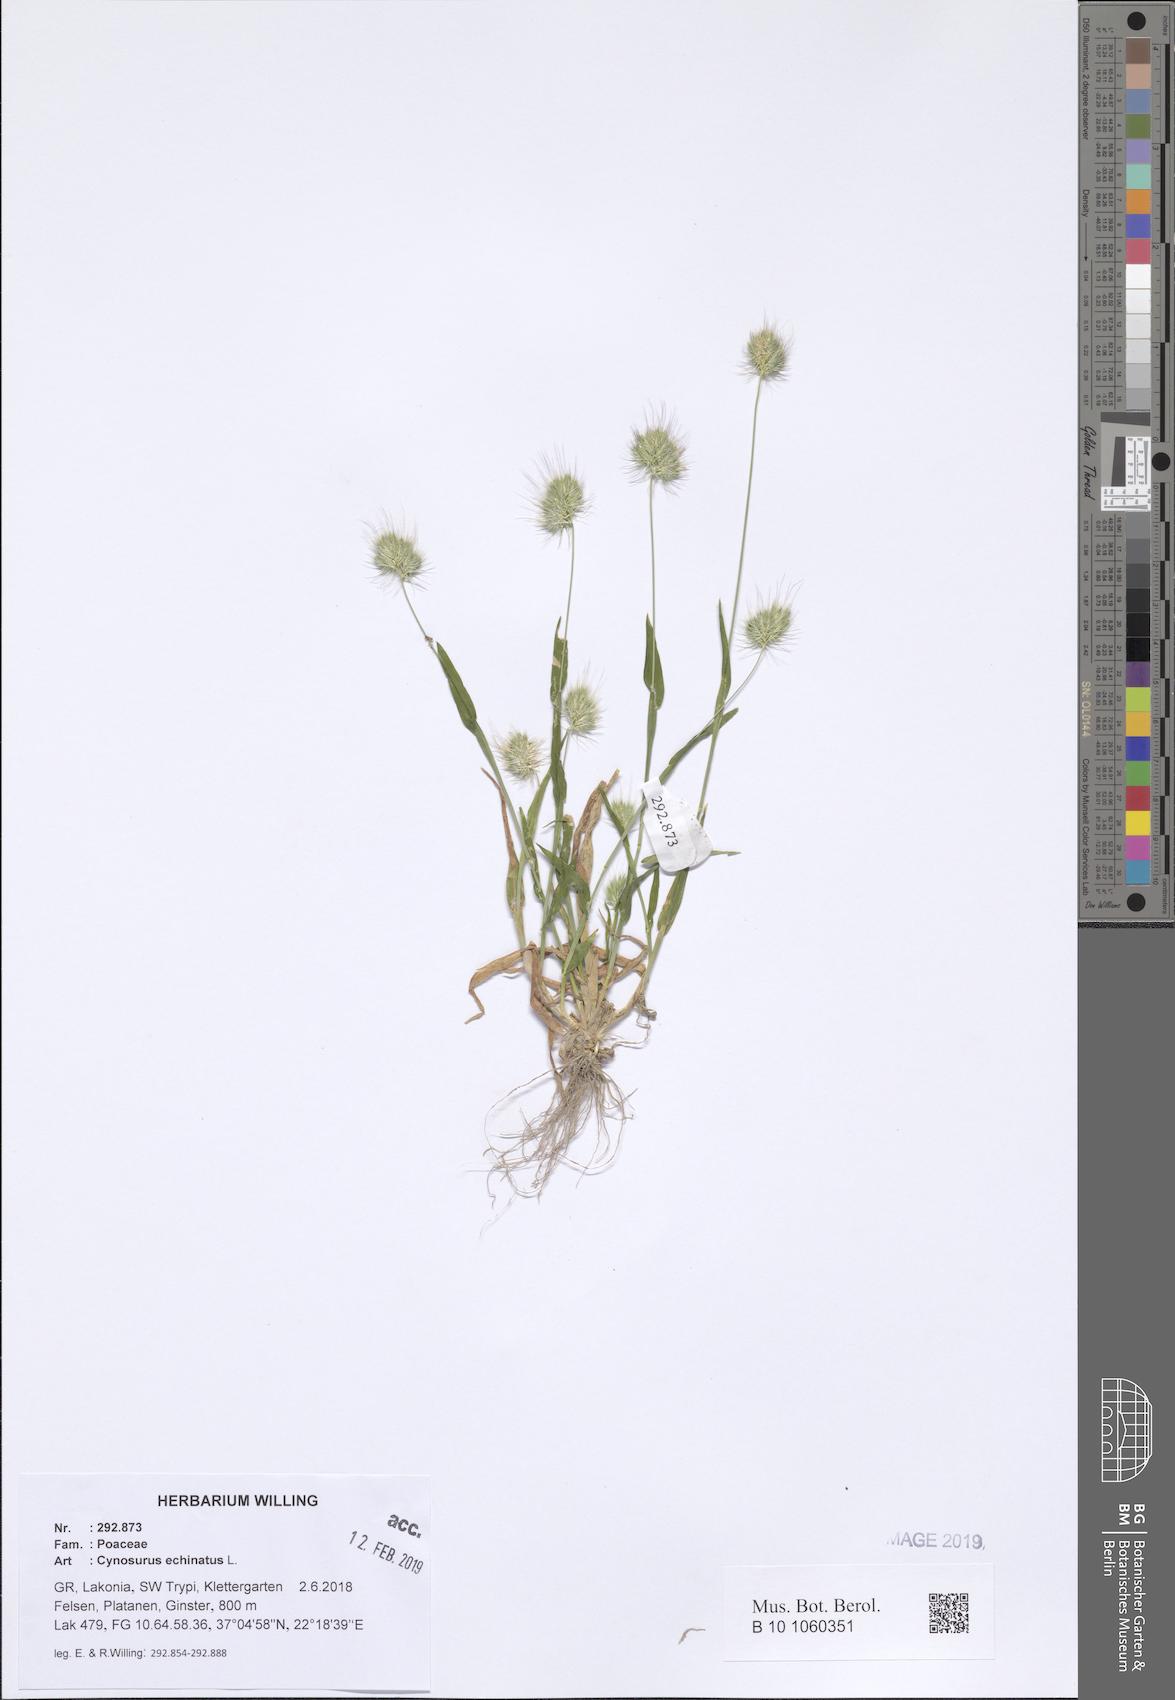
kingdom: Plantae
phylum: Tracheophyta
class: Liliopsida
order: Poales
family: Poaceae
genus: Cynosurus
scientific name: Cynosurus echinatus
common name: Rough dog's-tail
